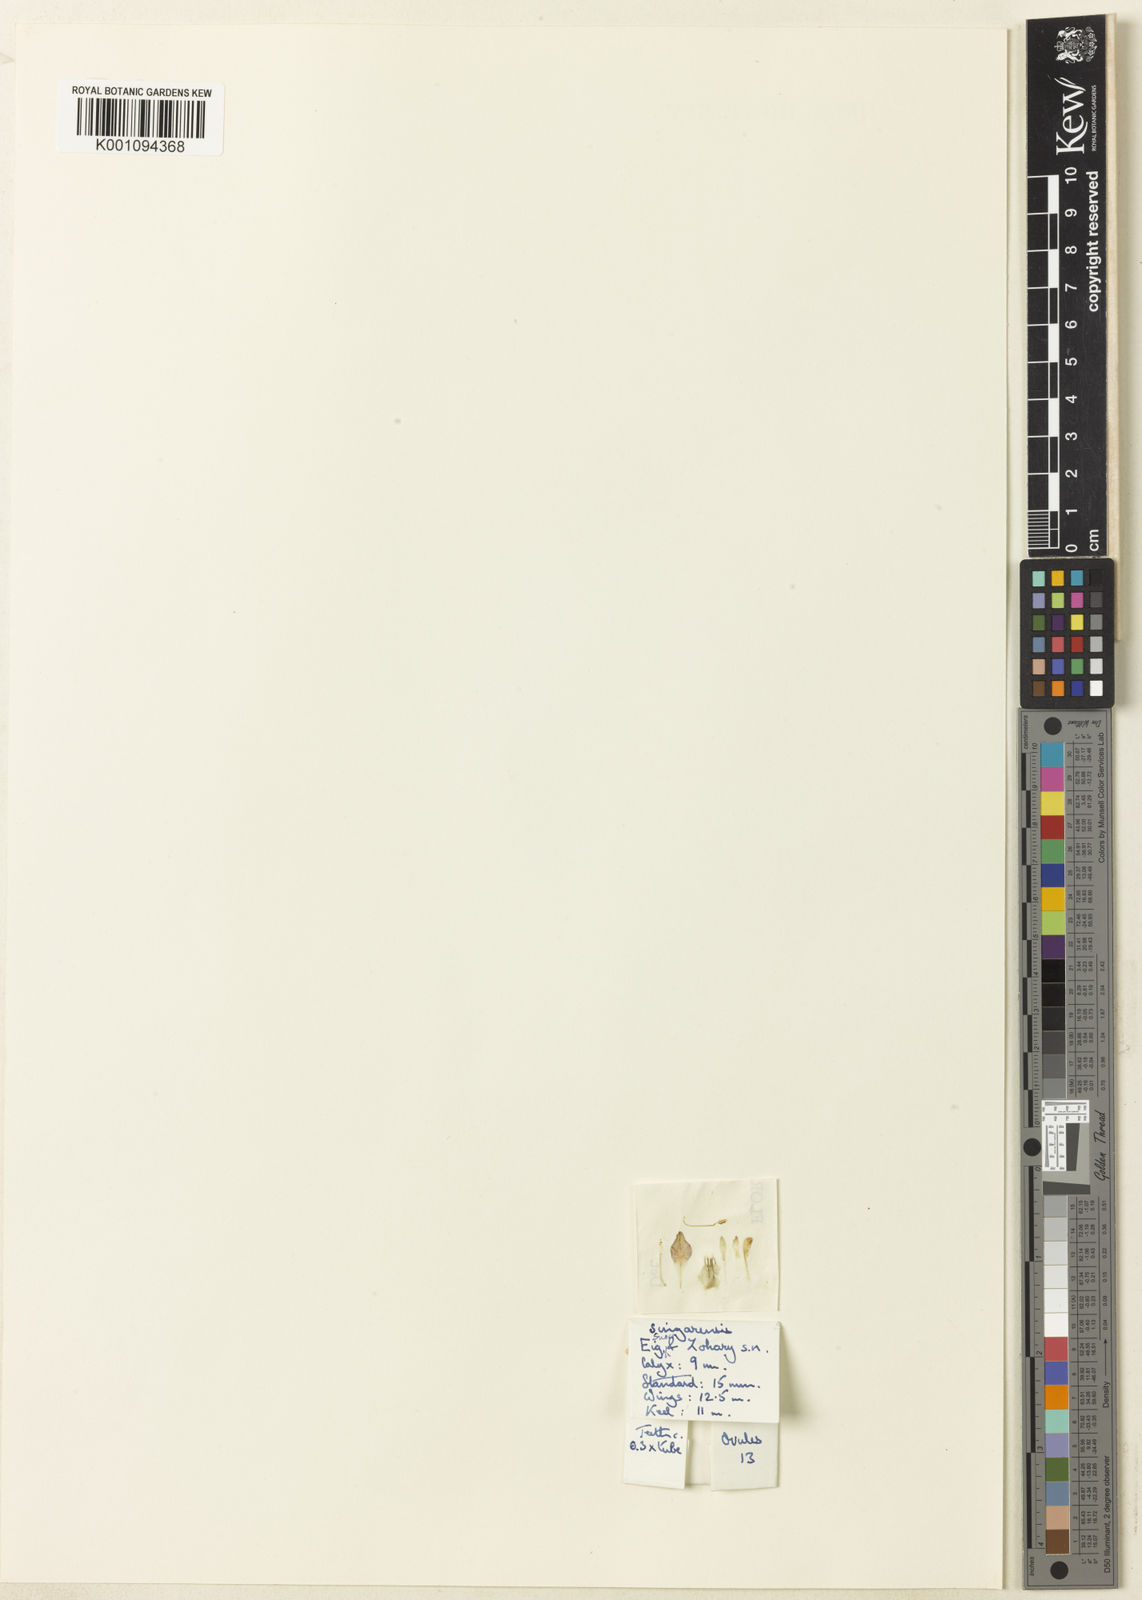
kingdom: Plantae
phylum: Tracheophyta
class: Magnoliopsida
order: Fabales
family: Fabaceae
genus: Astragalus
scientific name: Astragalus
